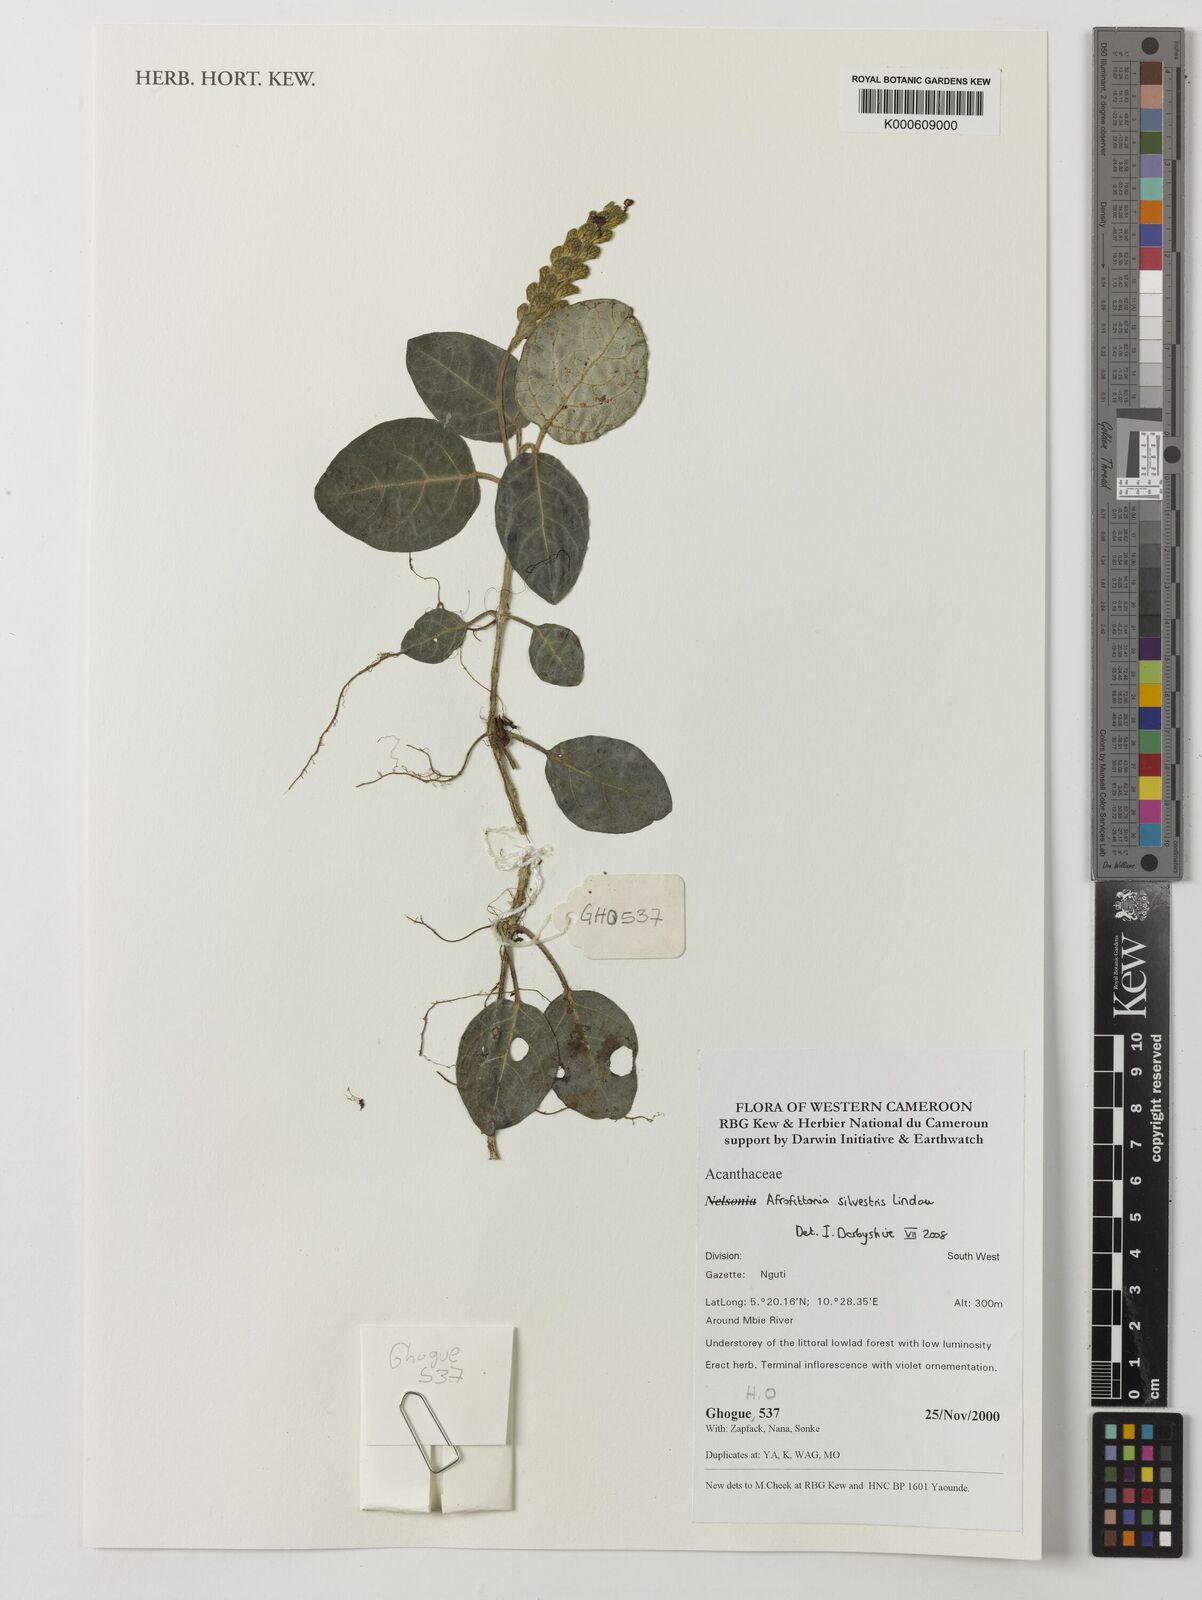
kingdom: Plantae
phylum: Tracheophyta
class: Magnoliopsida
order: Lamiales
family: Acanthaceae
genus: Afrofittonia
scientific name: Afrofittonia silvestris
